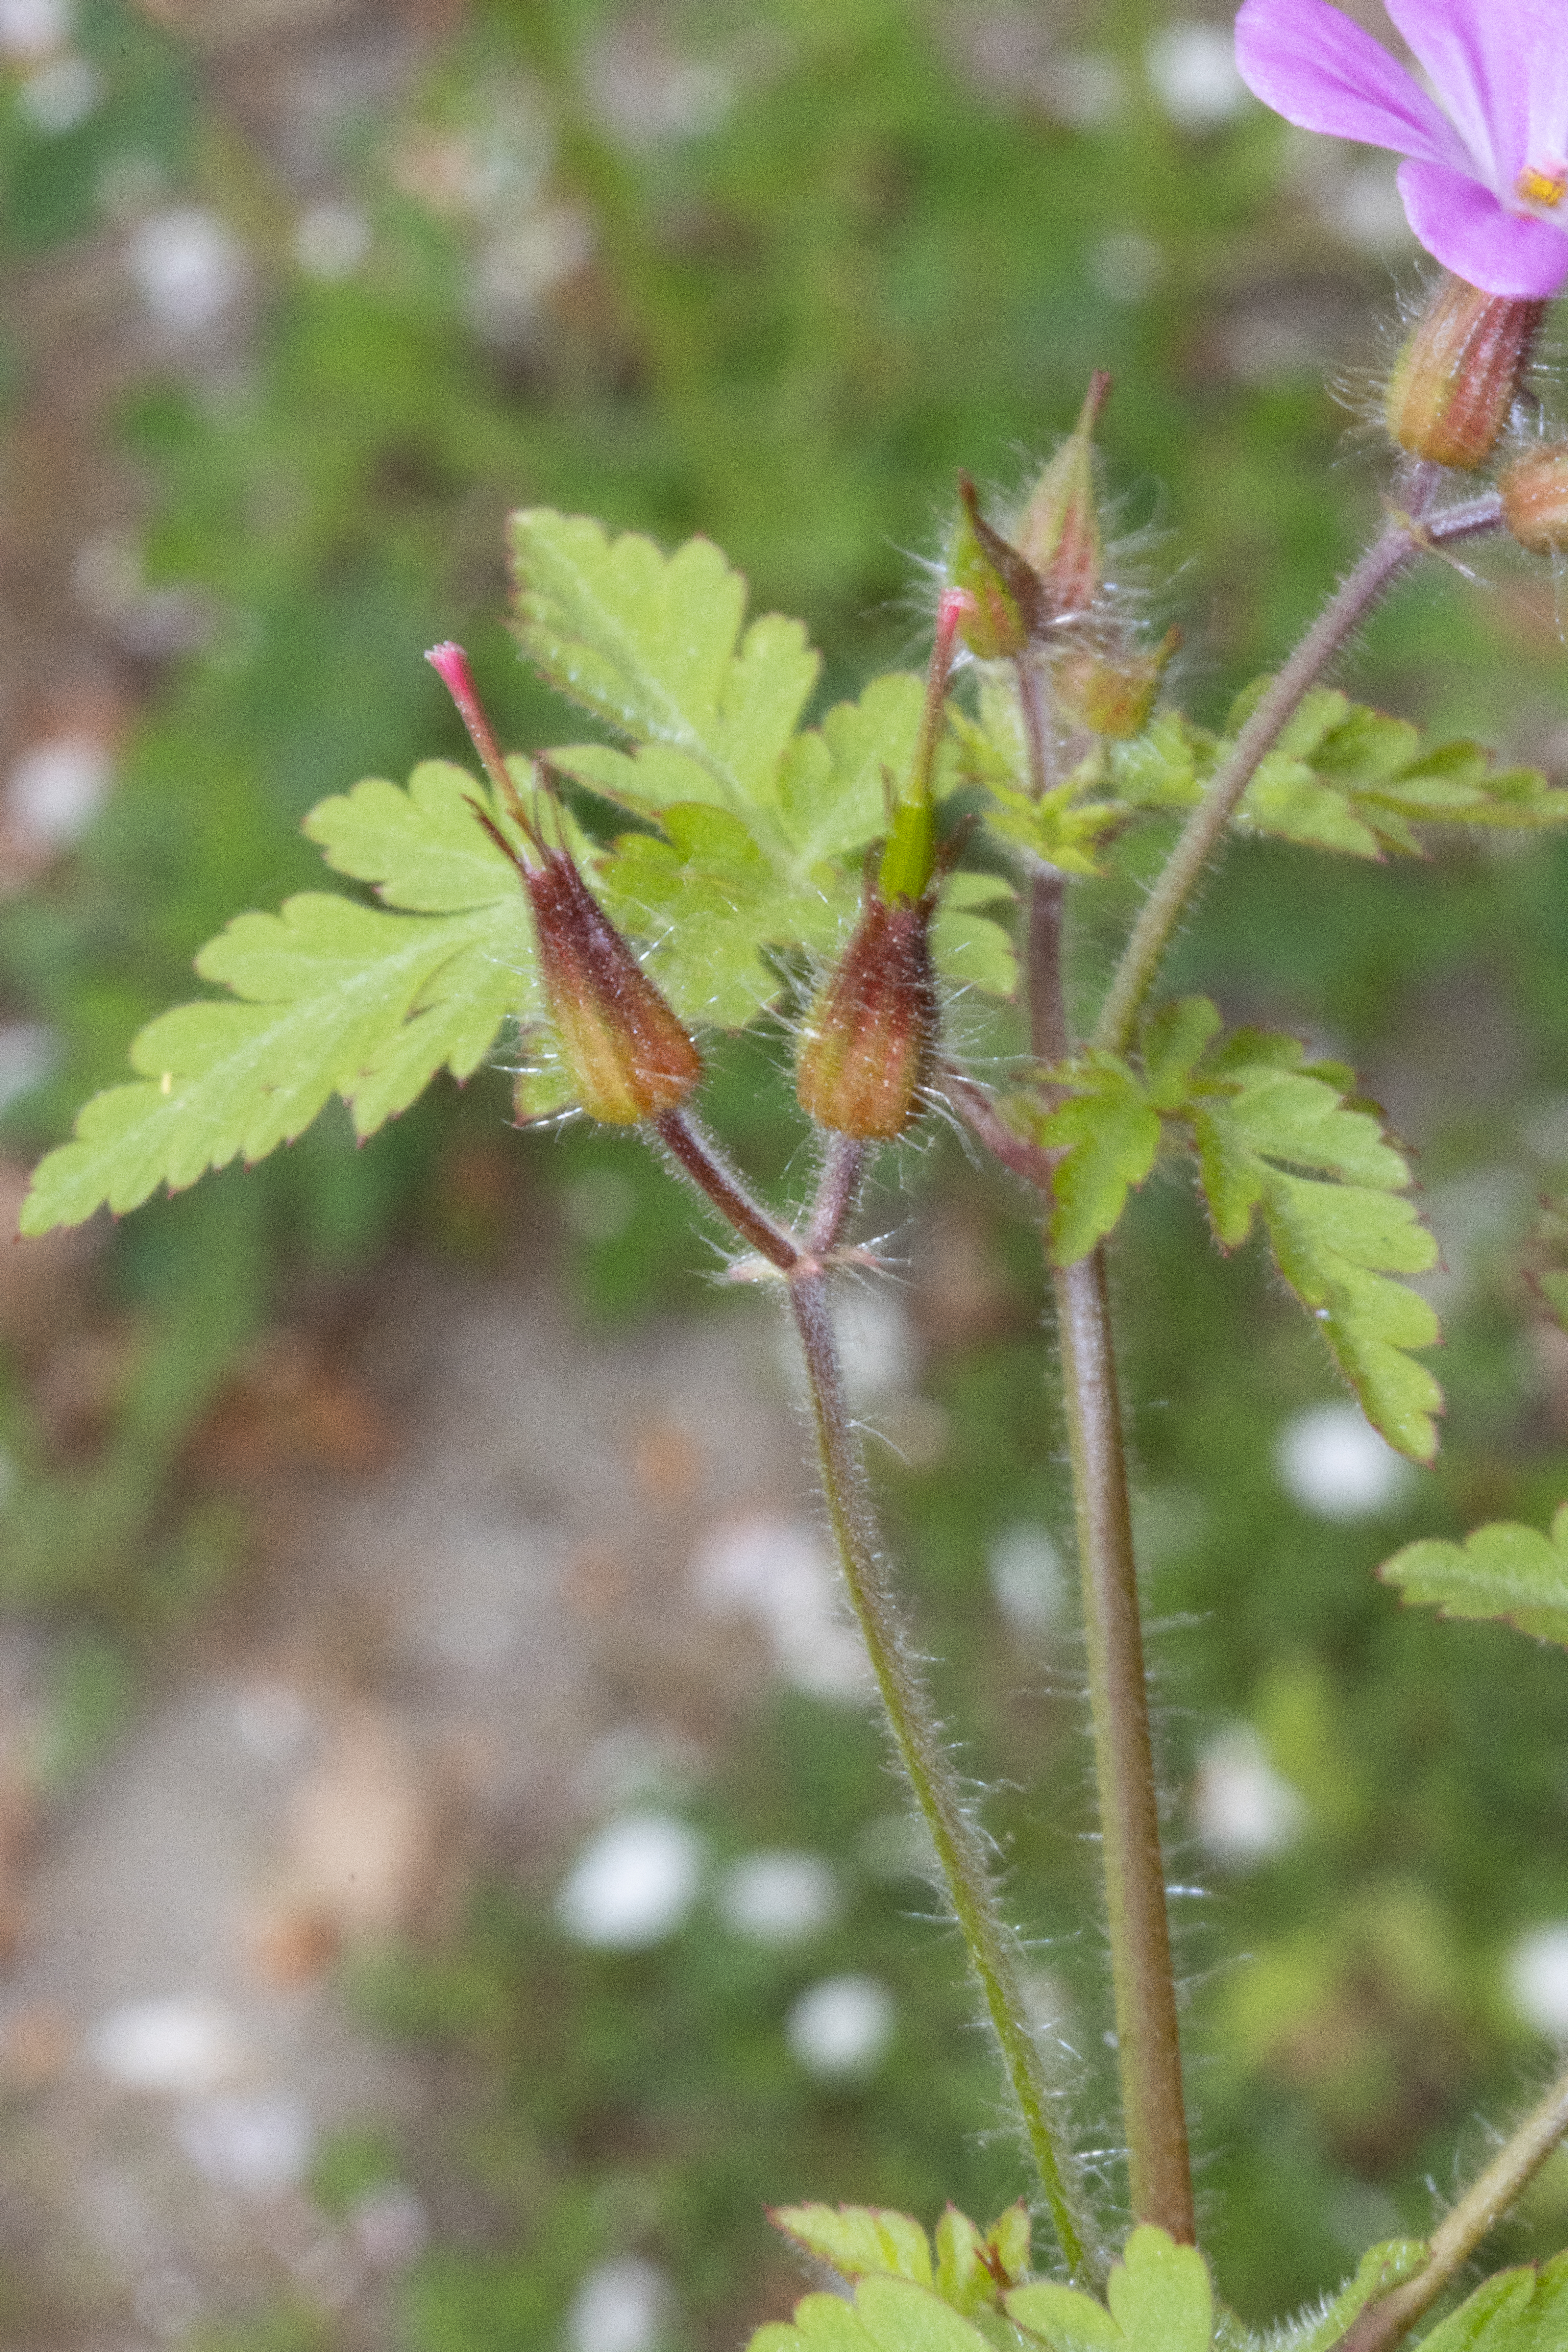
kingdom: Plantae
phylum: Tracheophyta
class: Magnoliopsida
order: Geraniales
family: Geraniaceae
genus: Geranium
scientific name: Geranium robertianum
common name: Stinkende storkenæb
